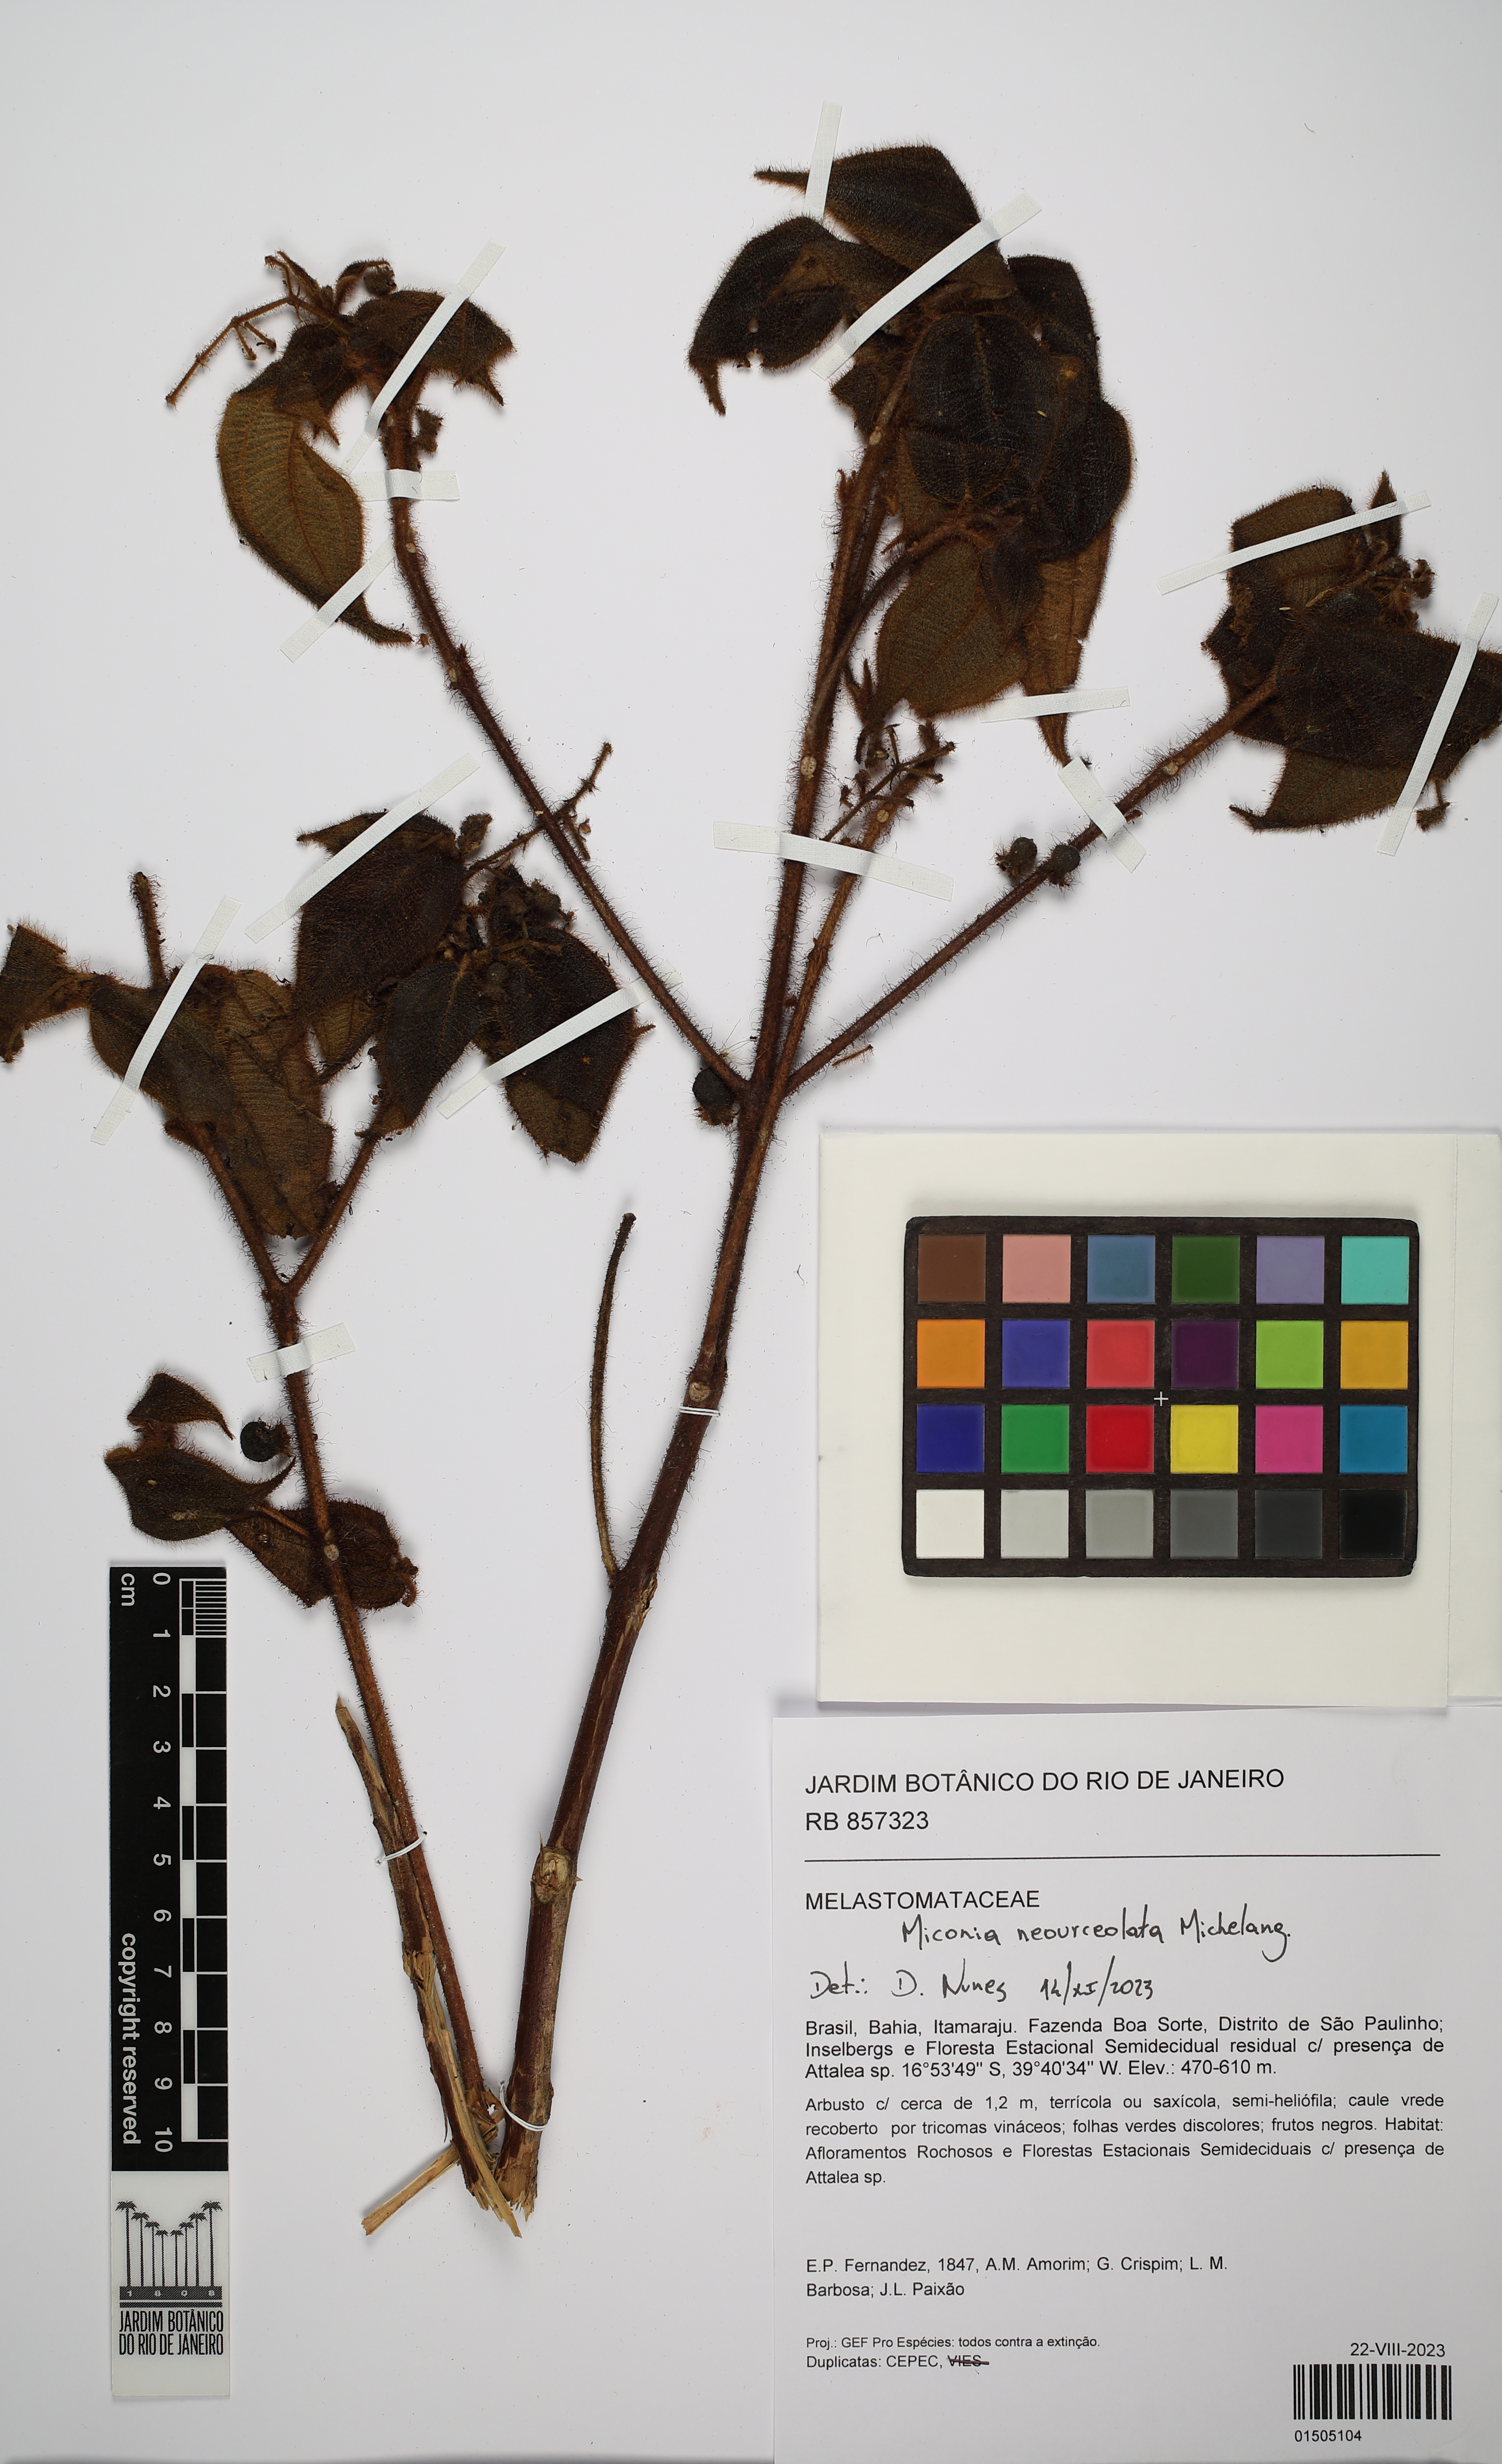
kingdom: Plantae
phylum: Tracheophyta
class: Magnoliopsida
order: Myrtales
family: Melastomataceae
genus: Miconia
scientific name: Miconia neourceolata
